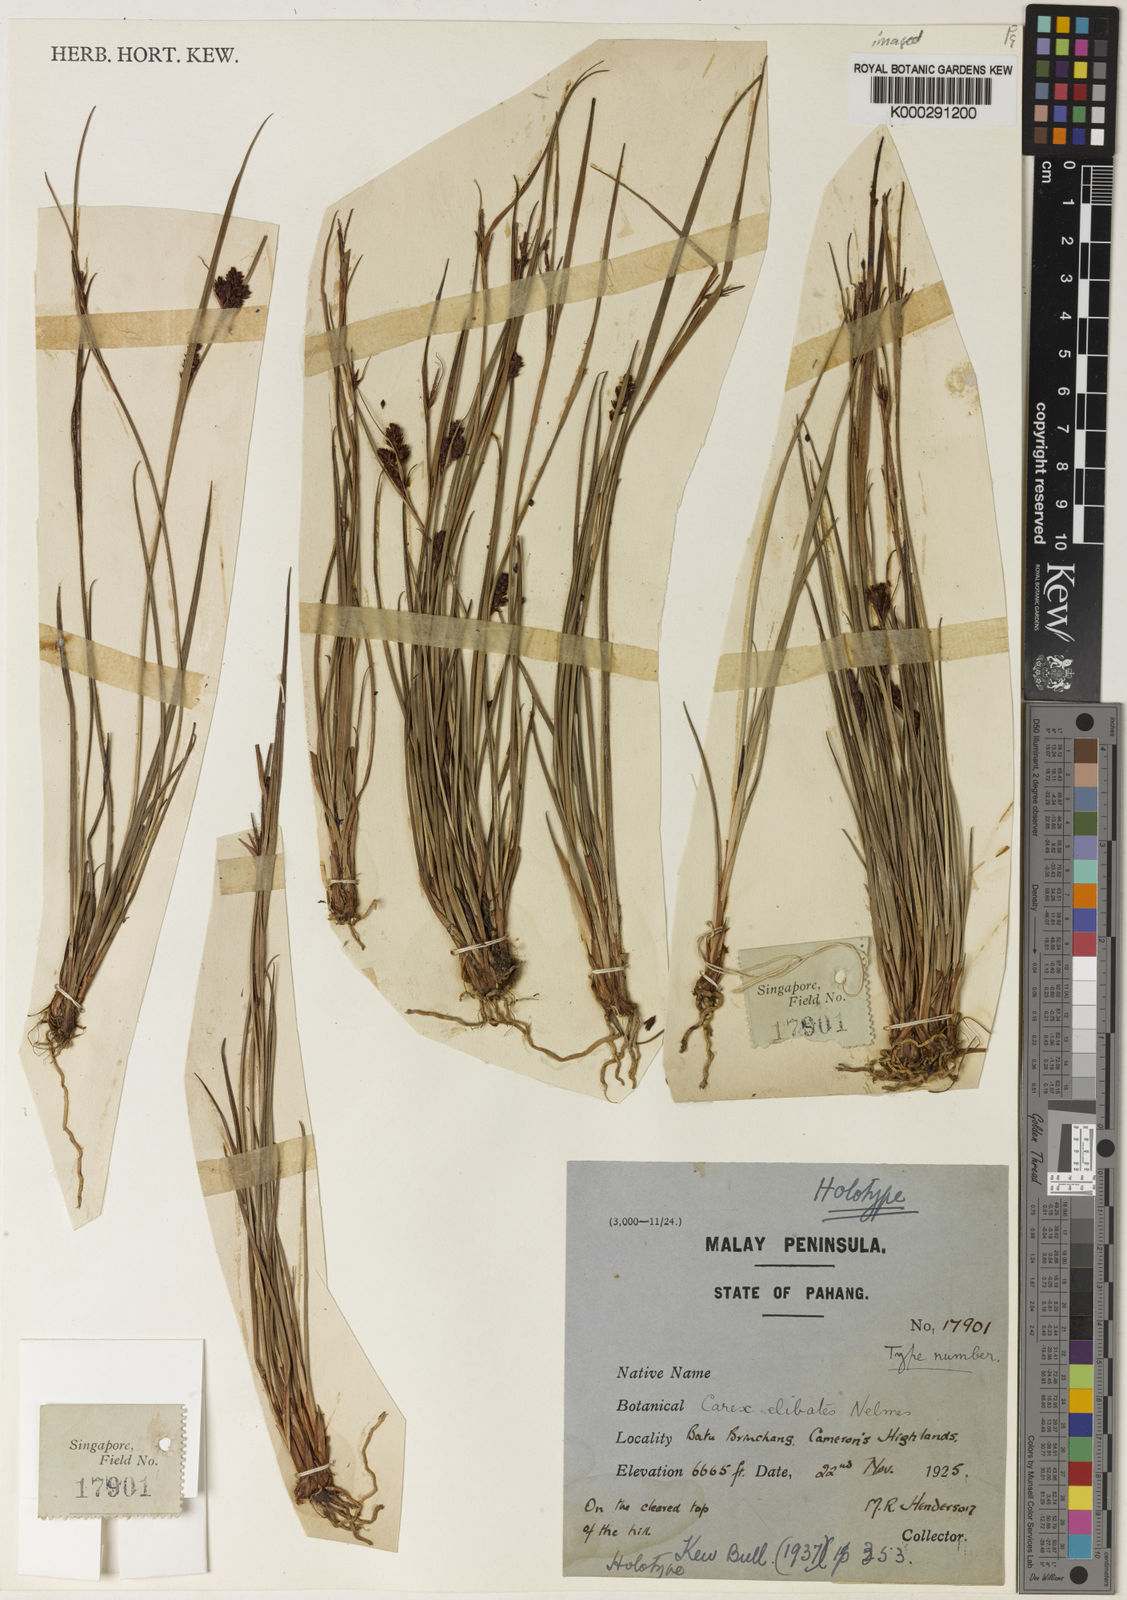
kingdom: Plantae
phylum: Tracheophyta
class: Liliopsida
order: Poales
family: Cyperaceae
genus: Carex
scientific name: Carex maculata
